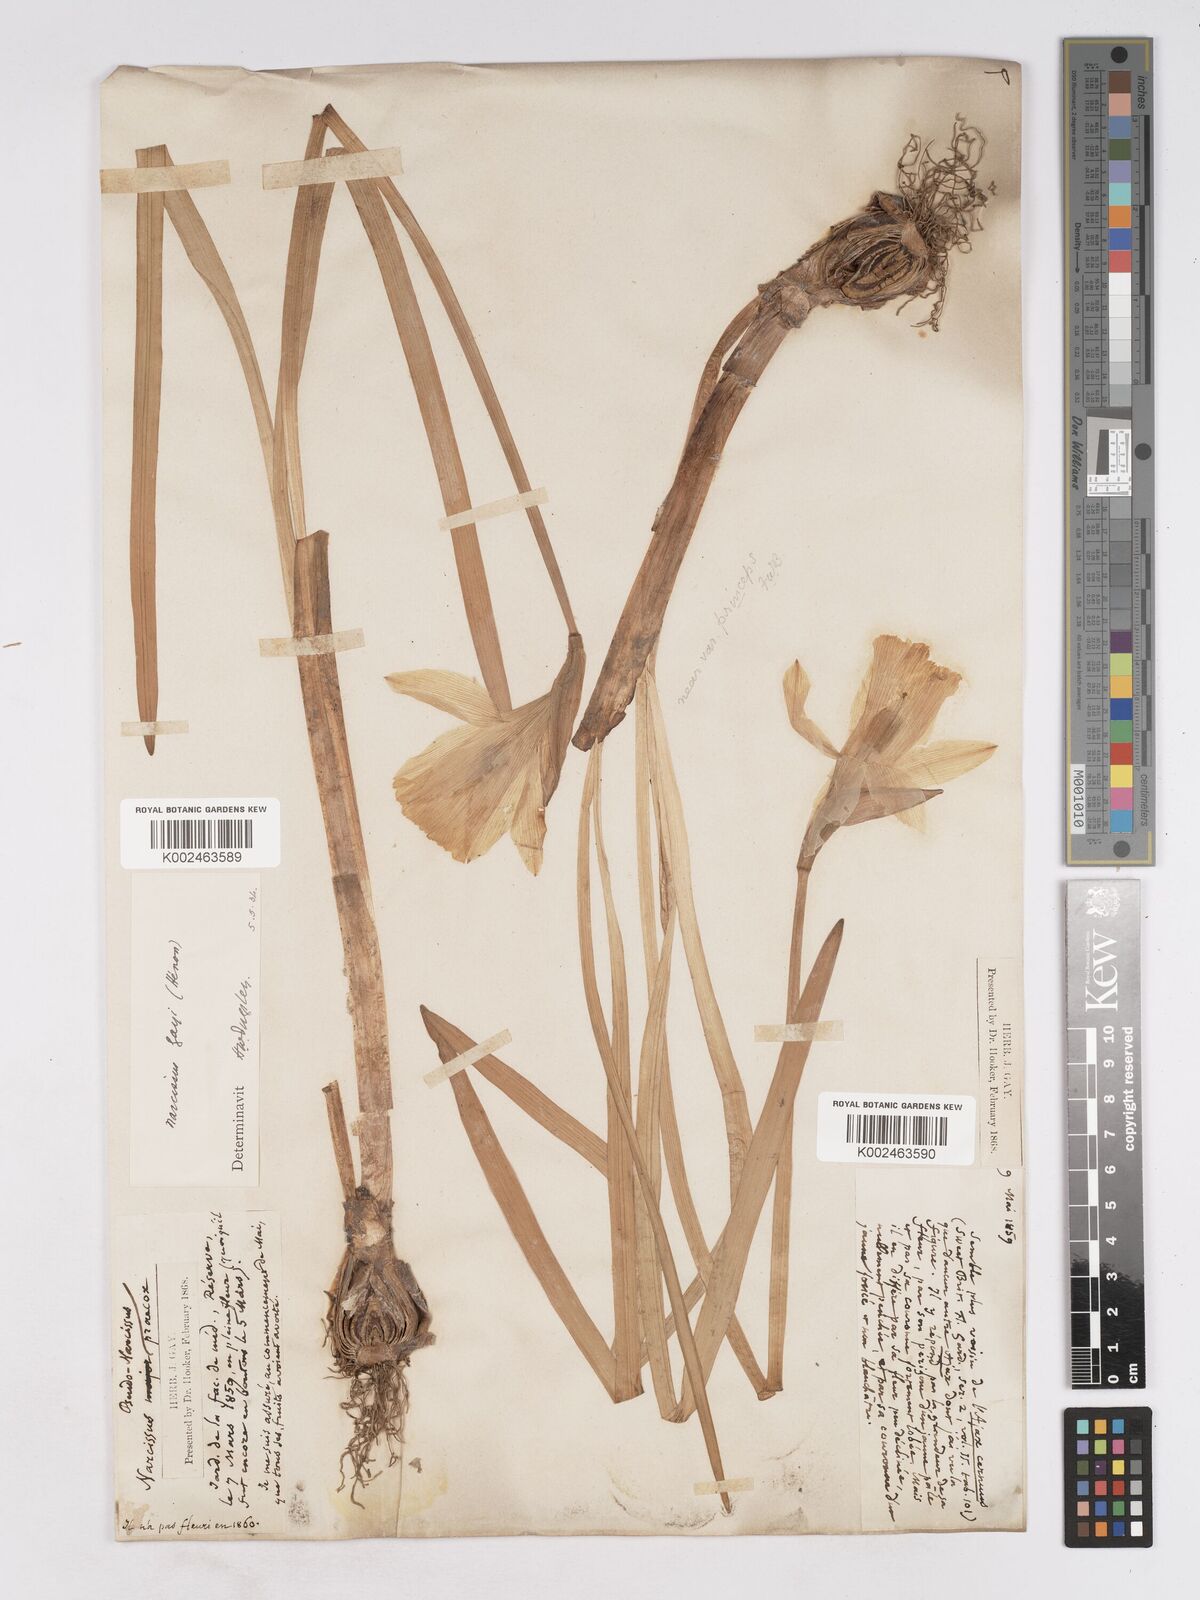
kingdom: Plantae
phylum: Tracheophyta
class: Liliopsida
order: Asparagales
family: Amaryllidaceae
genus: Narcissus
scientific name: Narcissus pseudonarcissus
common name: Daffodil
